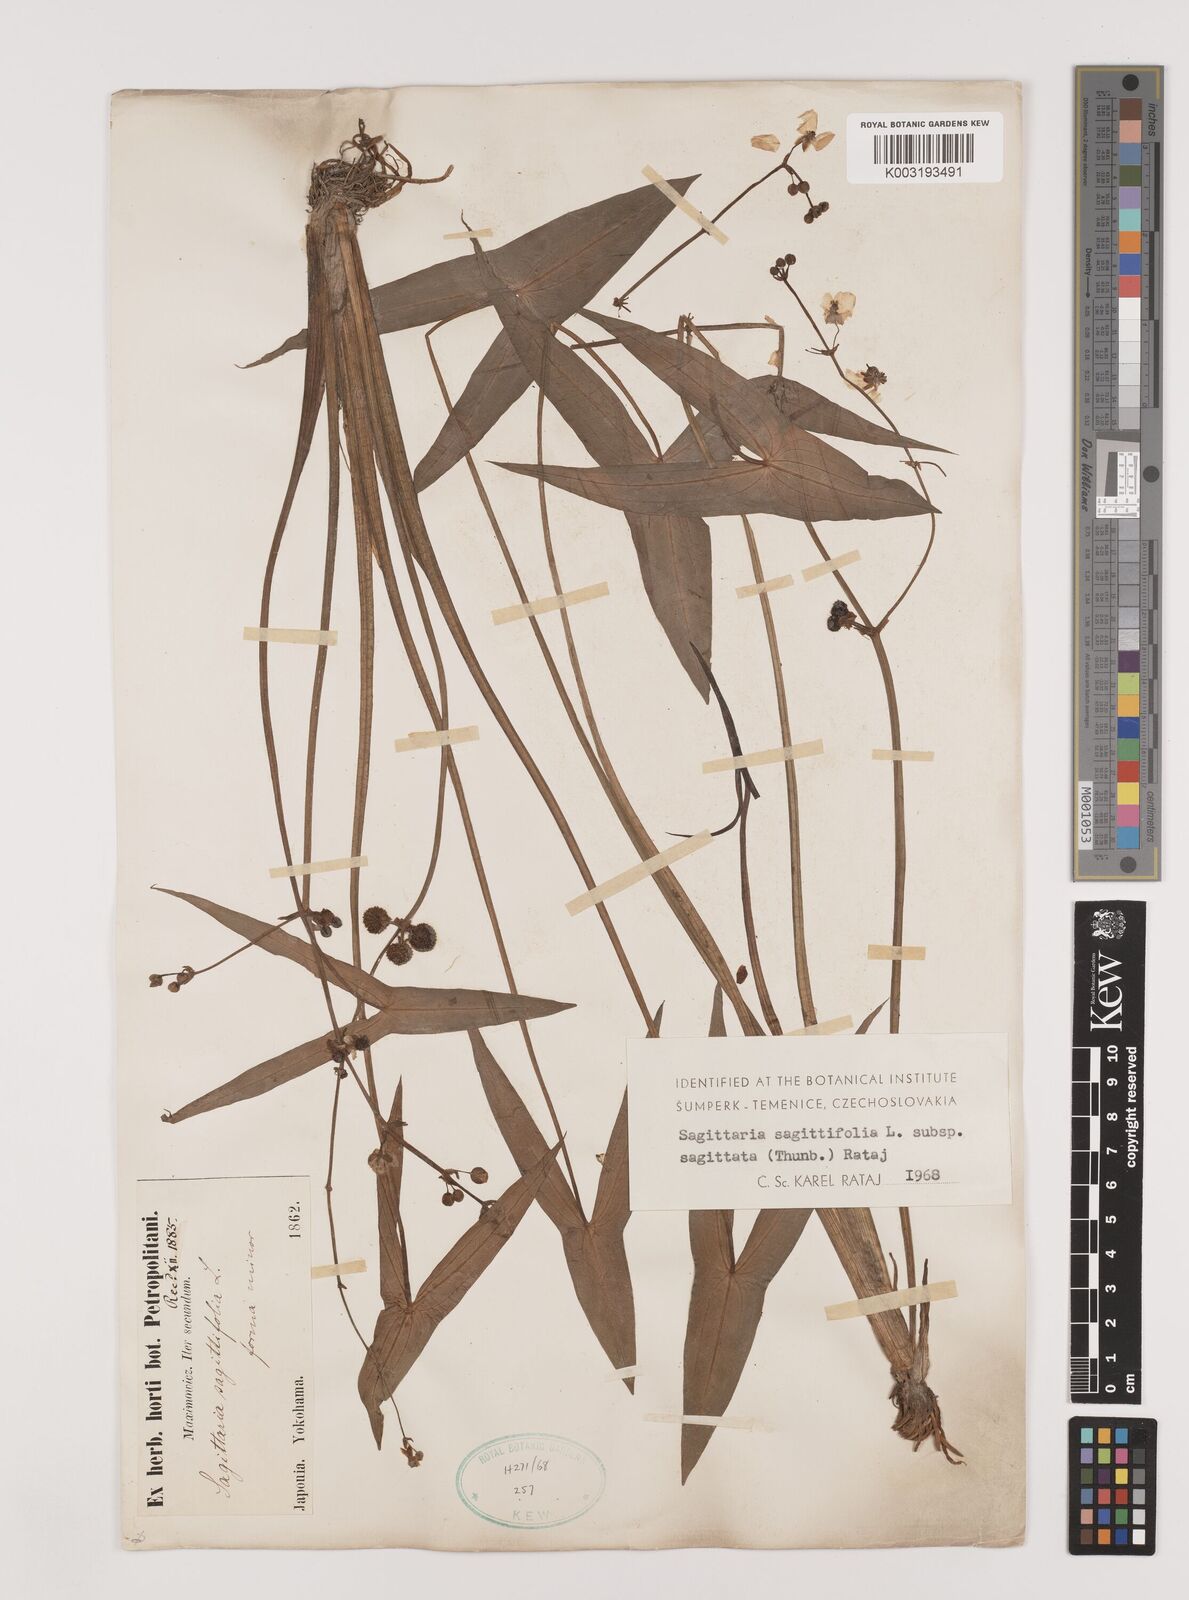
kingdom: Plantae
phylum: Tracheophyta
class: Liliopsida
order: Alismatales
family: Alismataceae
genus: Sagittaria
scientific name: Sagittaria sagittifolia
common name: Arrowhead
